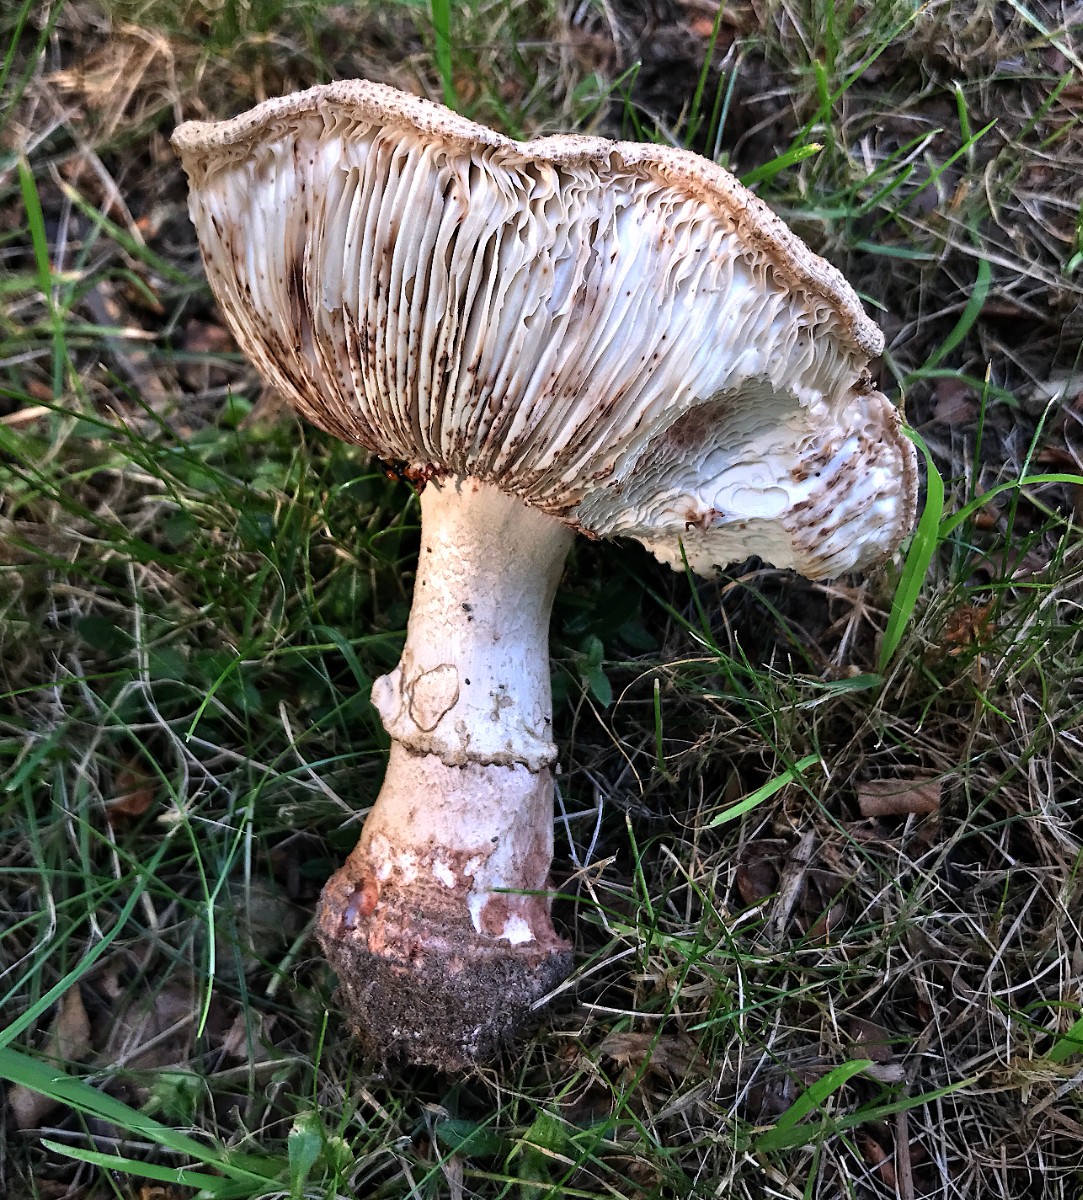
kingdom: Fungi
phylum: Basidiomycota
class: Agaricomycetes
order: Agaricales
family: Amanitaceae
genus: Amanita
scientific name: Amanita rubescens
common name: rødmende fluesvamp
